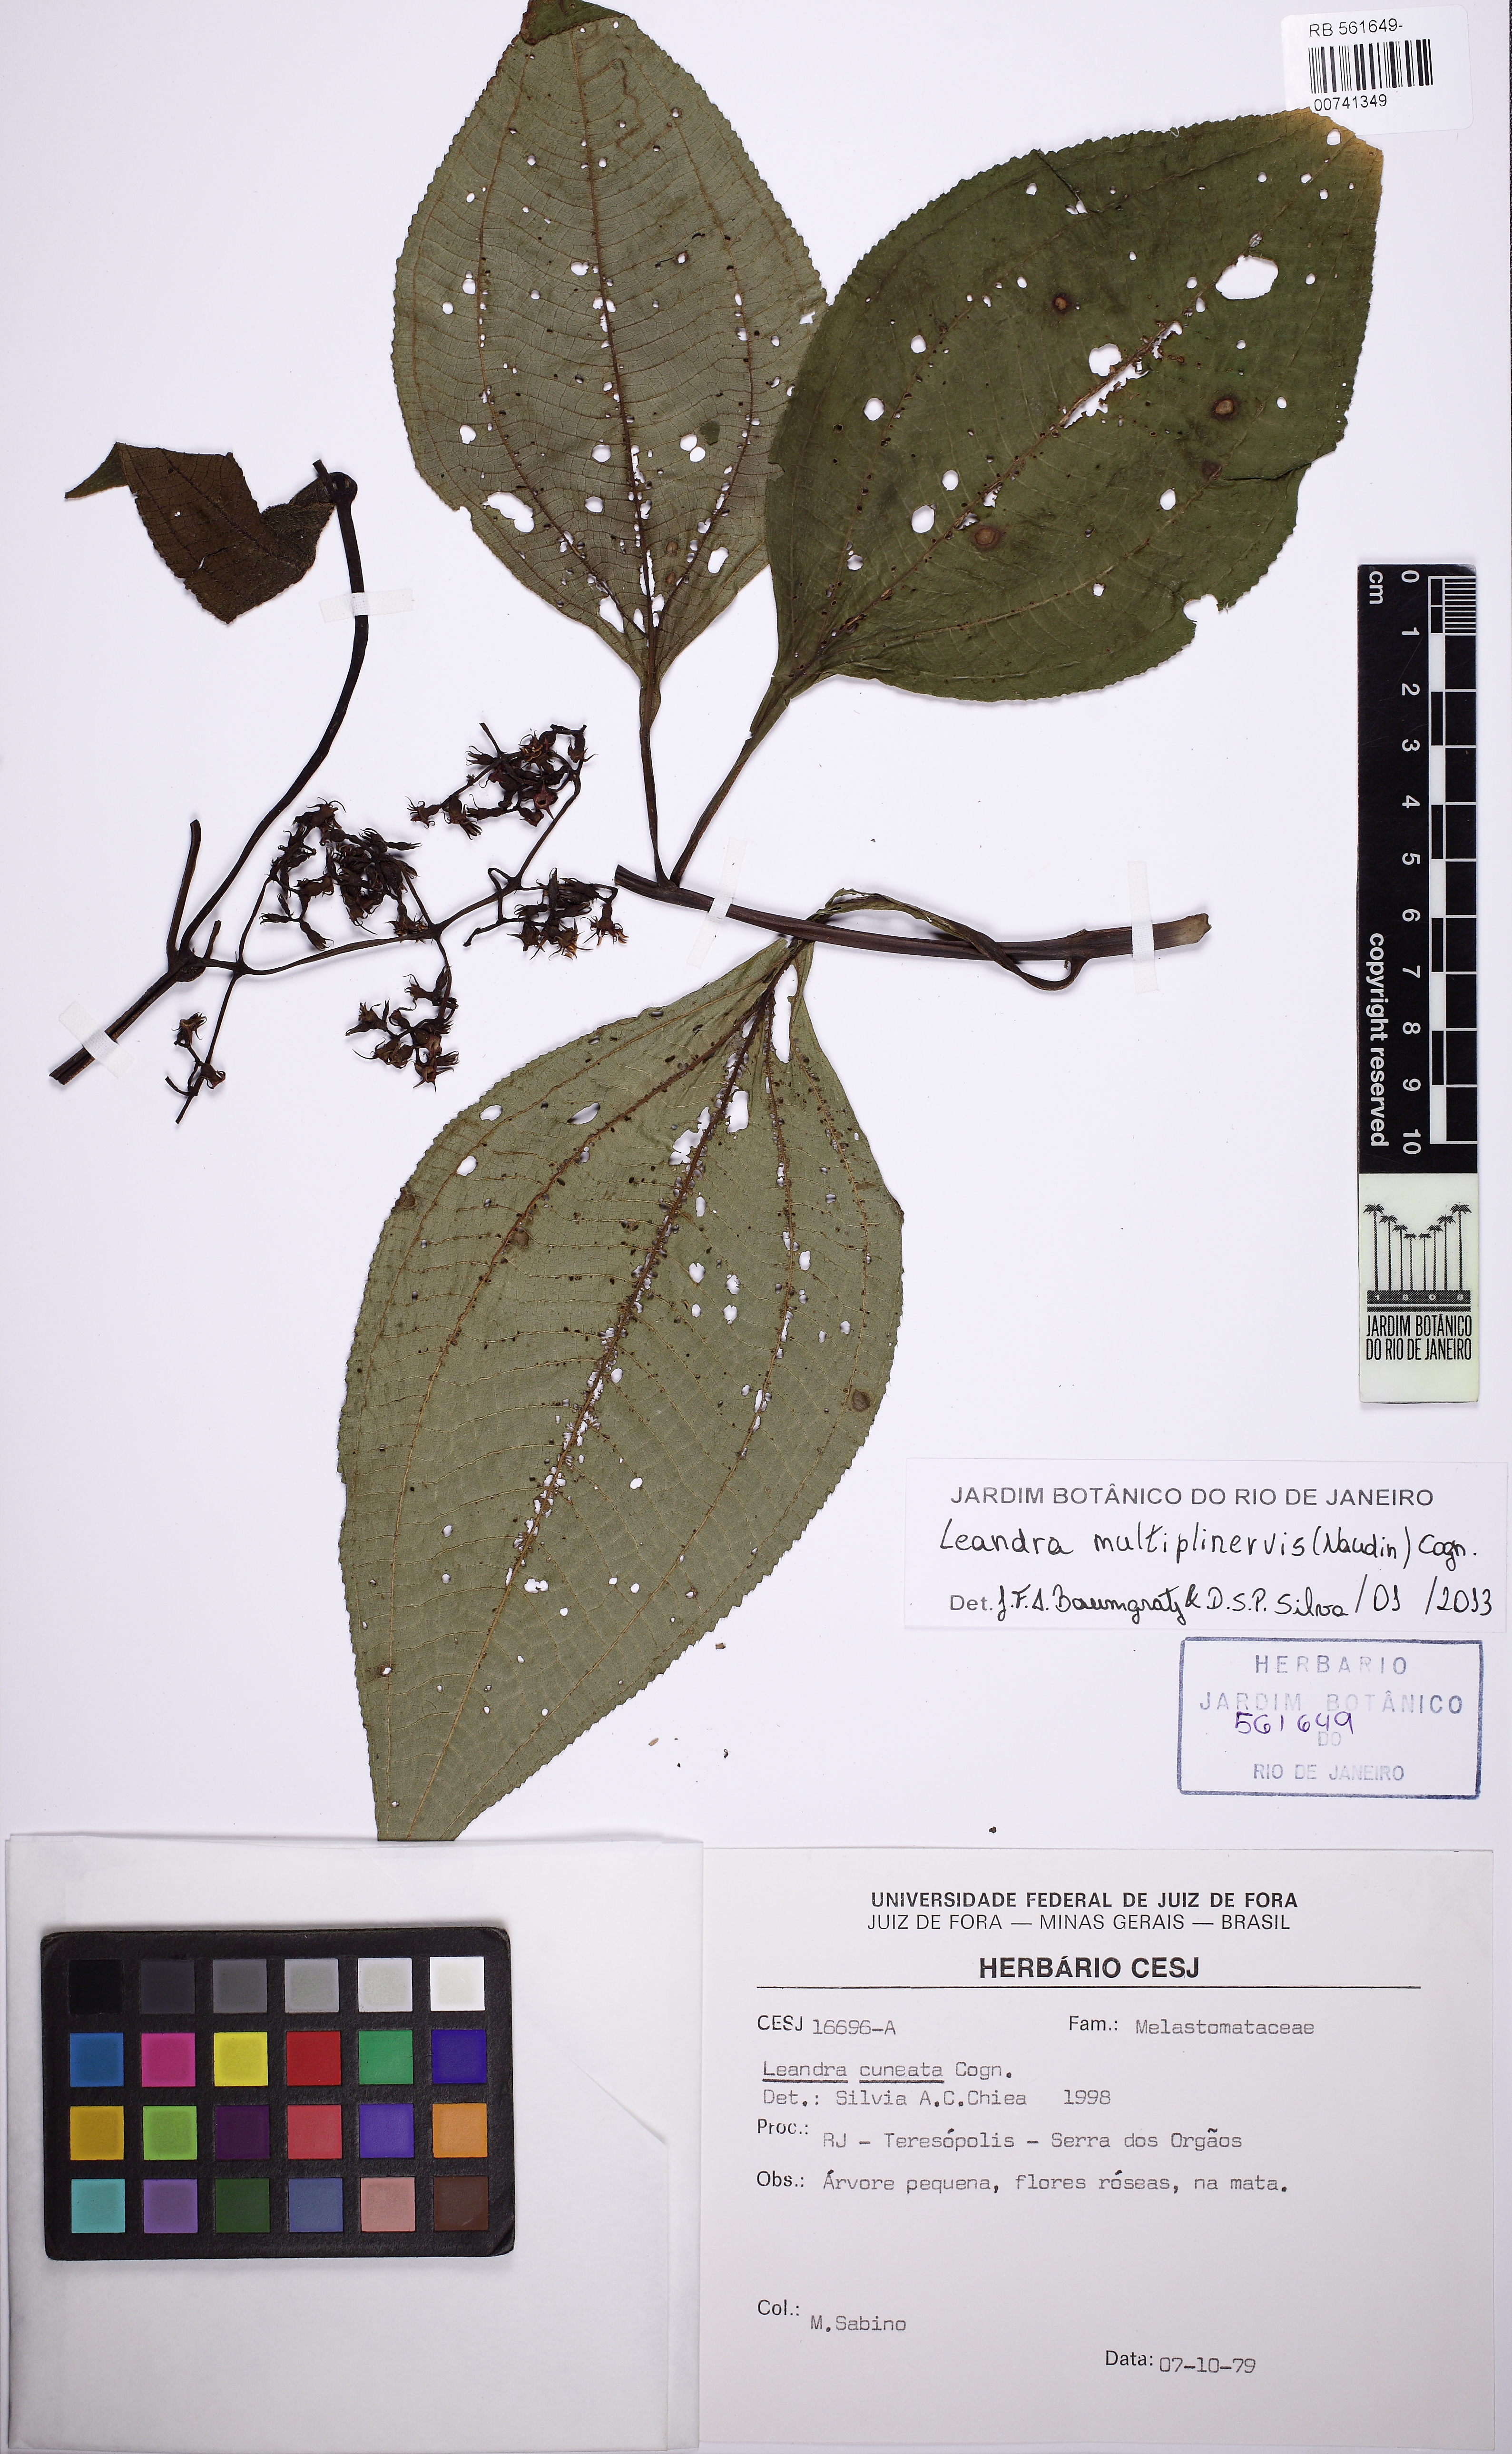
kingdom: Plantae
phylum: Tracheophyta
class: Magnoliopsida
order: Myrtales
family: Melastomataceae
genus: Miconia
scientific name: Miconia oocarpa
